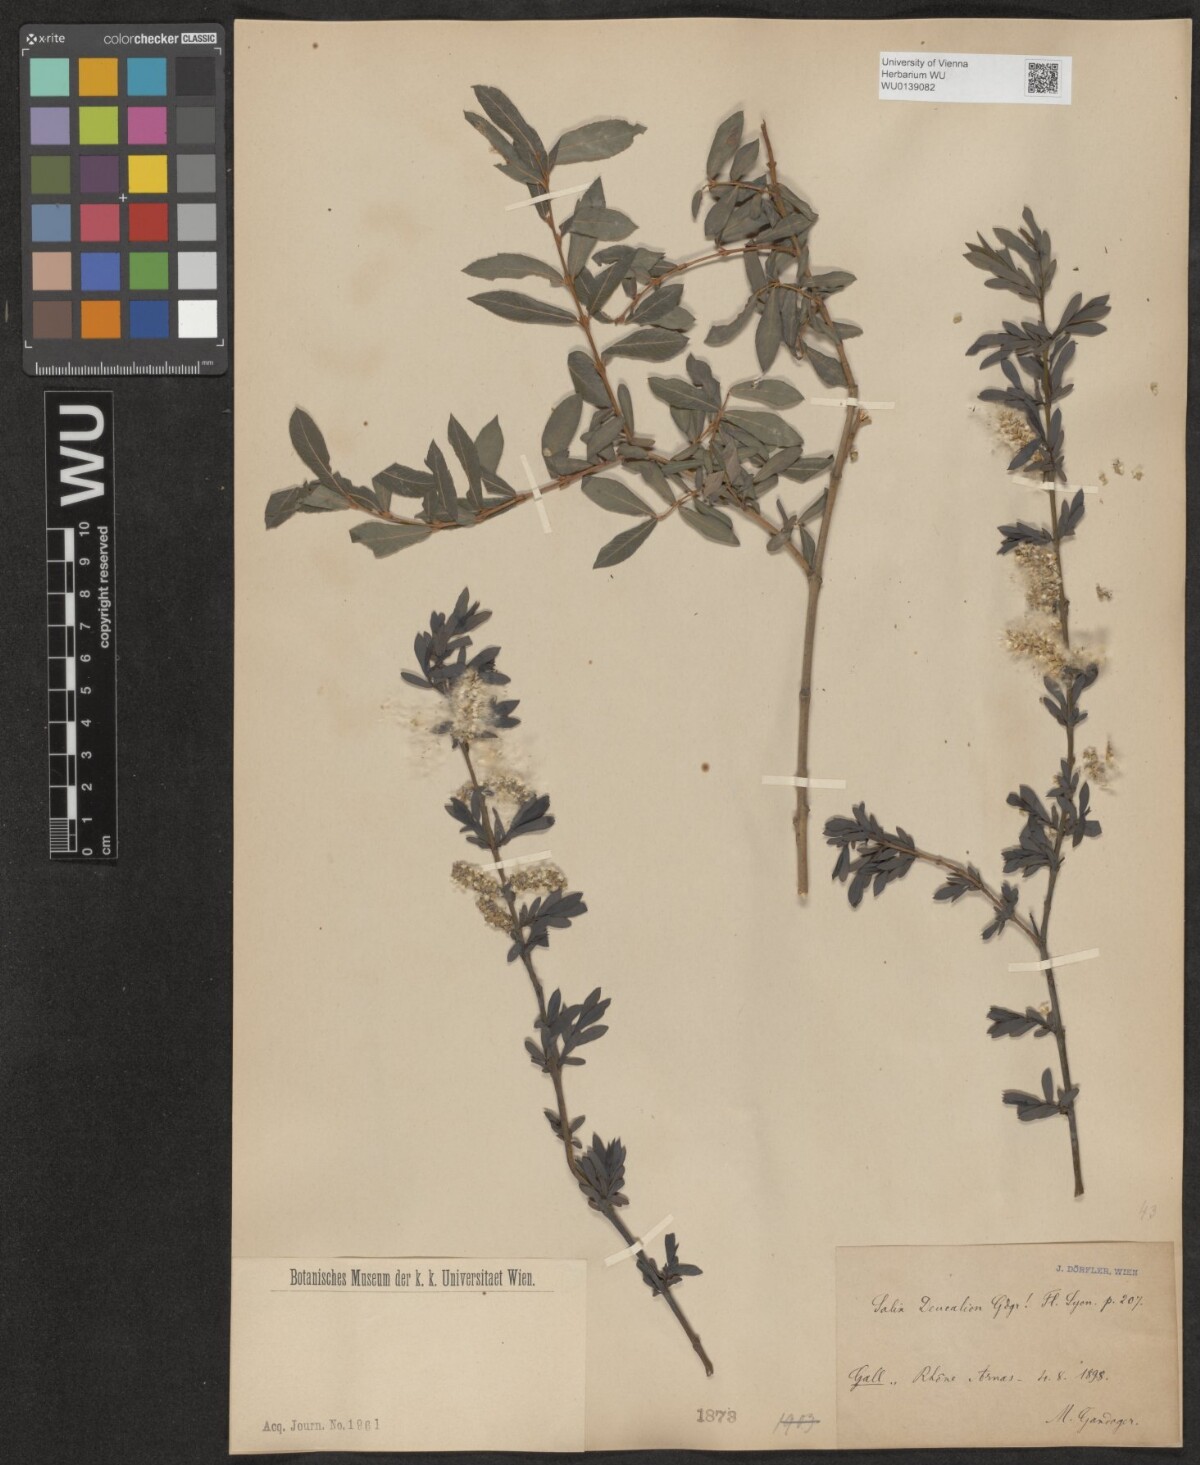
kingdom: Plantae
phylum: Tracheophyta
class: Magnoliopsida
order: Malpighiales
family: Salicaceae
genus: Salix
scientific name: Salix purpurea
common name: Purple willow
